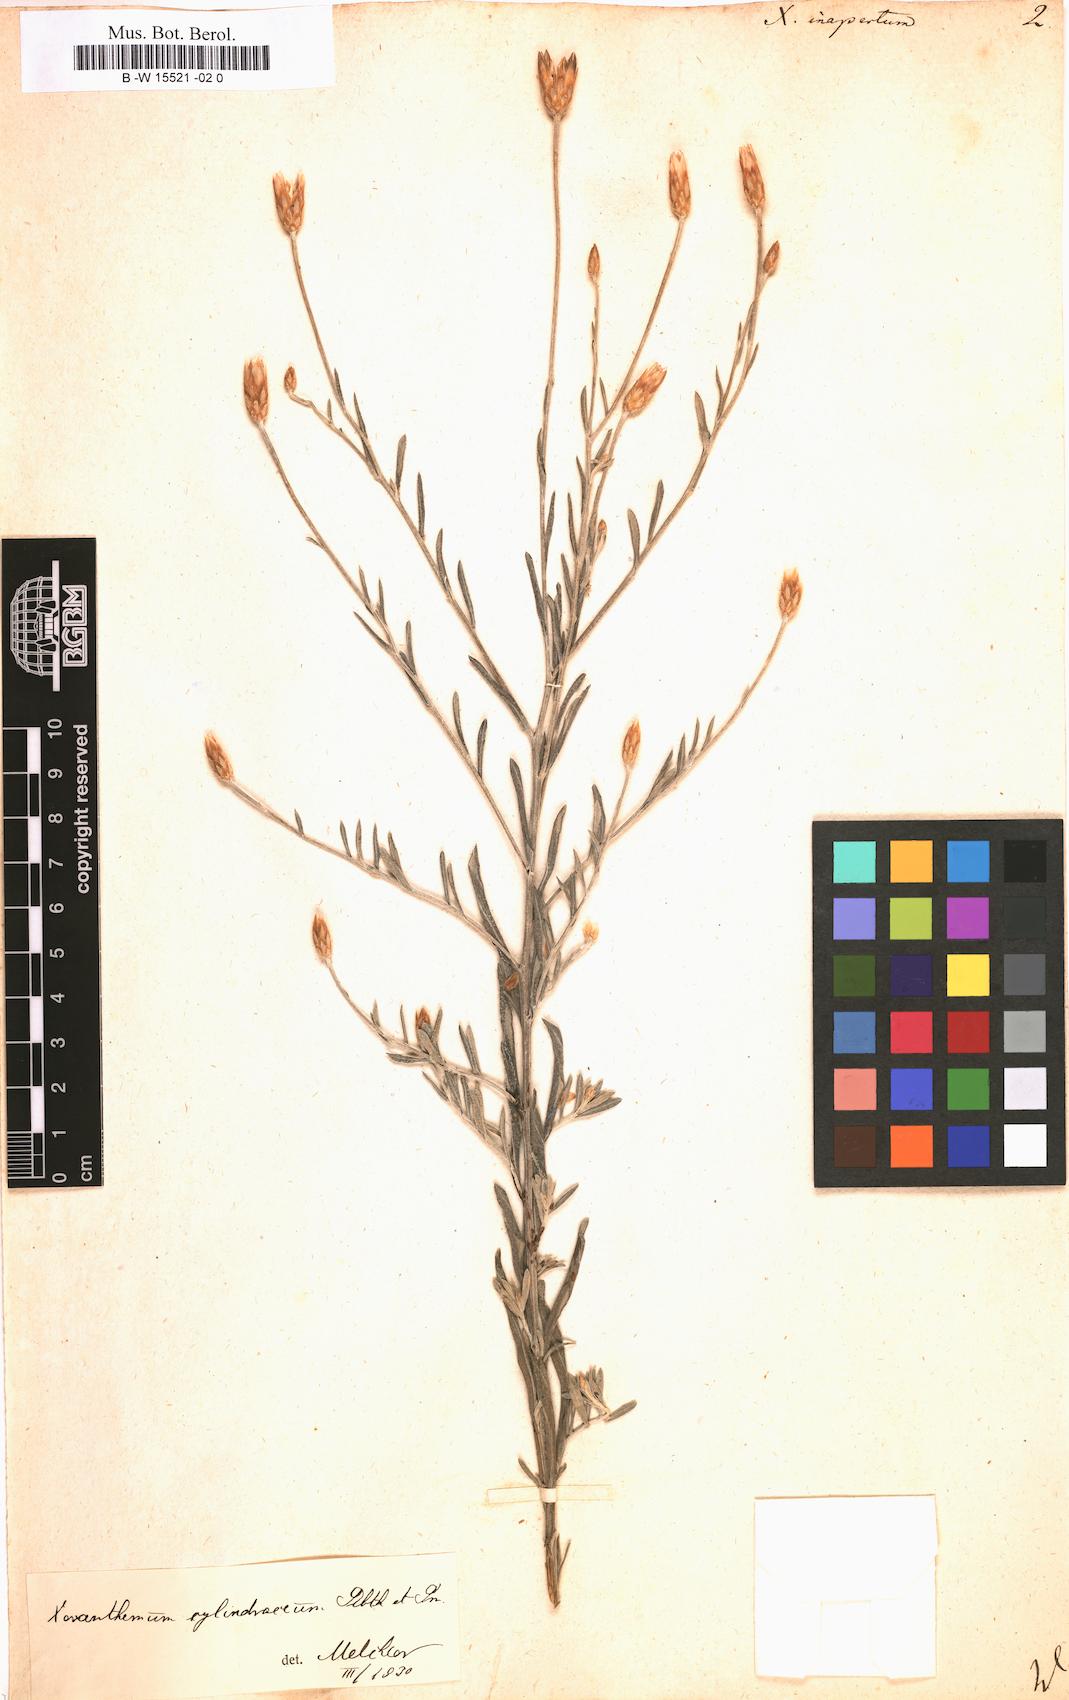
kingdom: Plantae
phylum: Tracheophyta
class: Magnoliopsida
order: Asterales
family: Asteraceae
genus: Xeranthemum
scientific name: Xeranthemum inapertum
